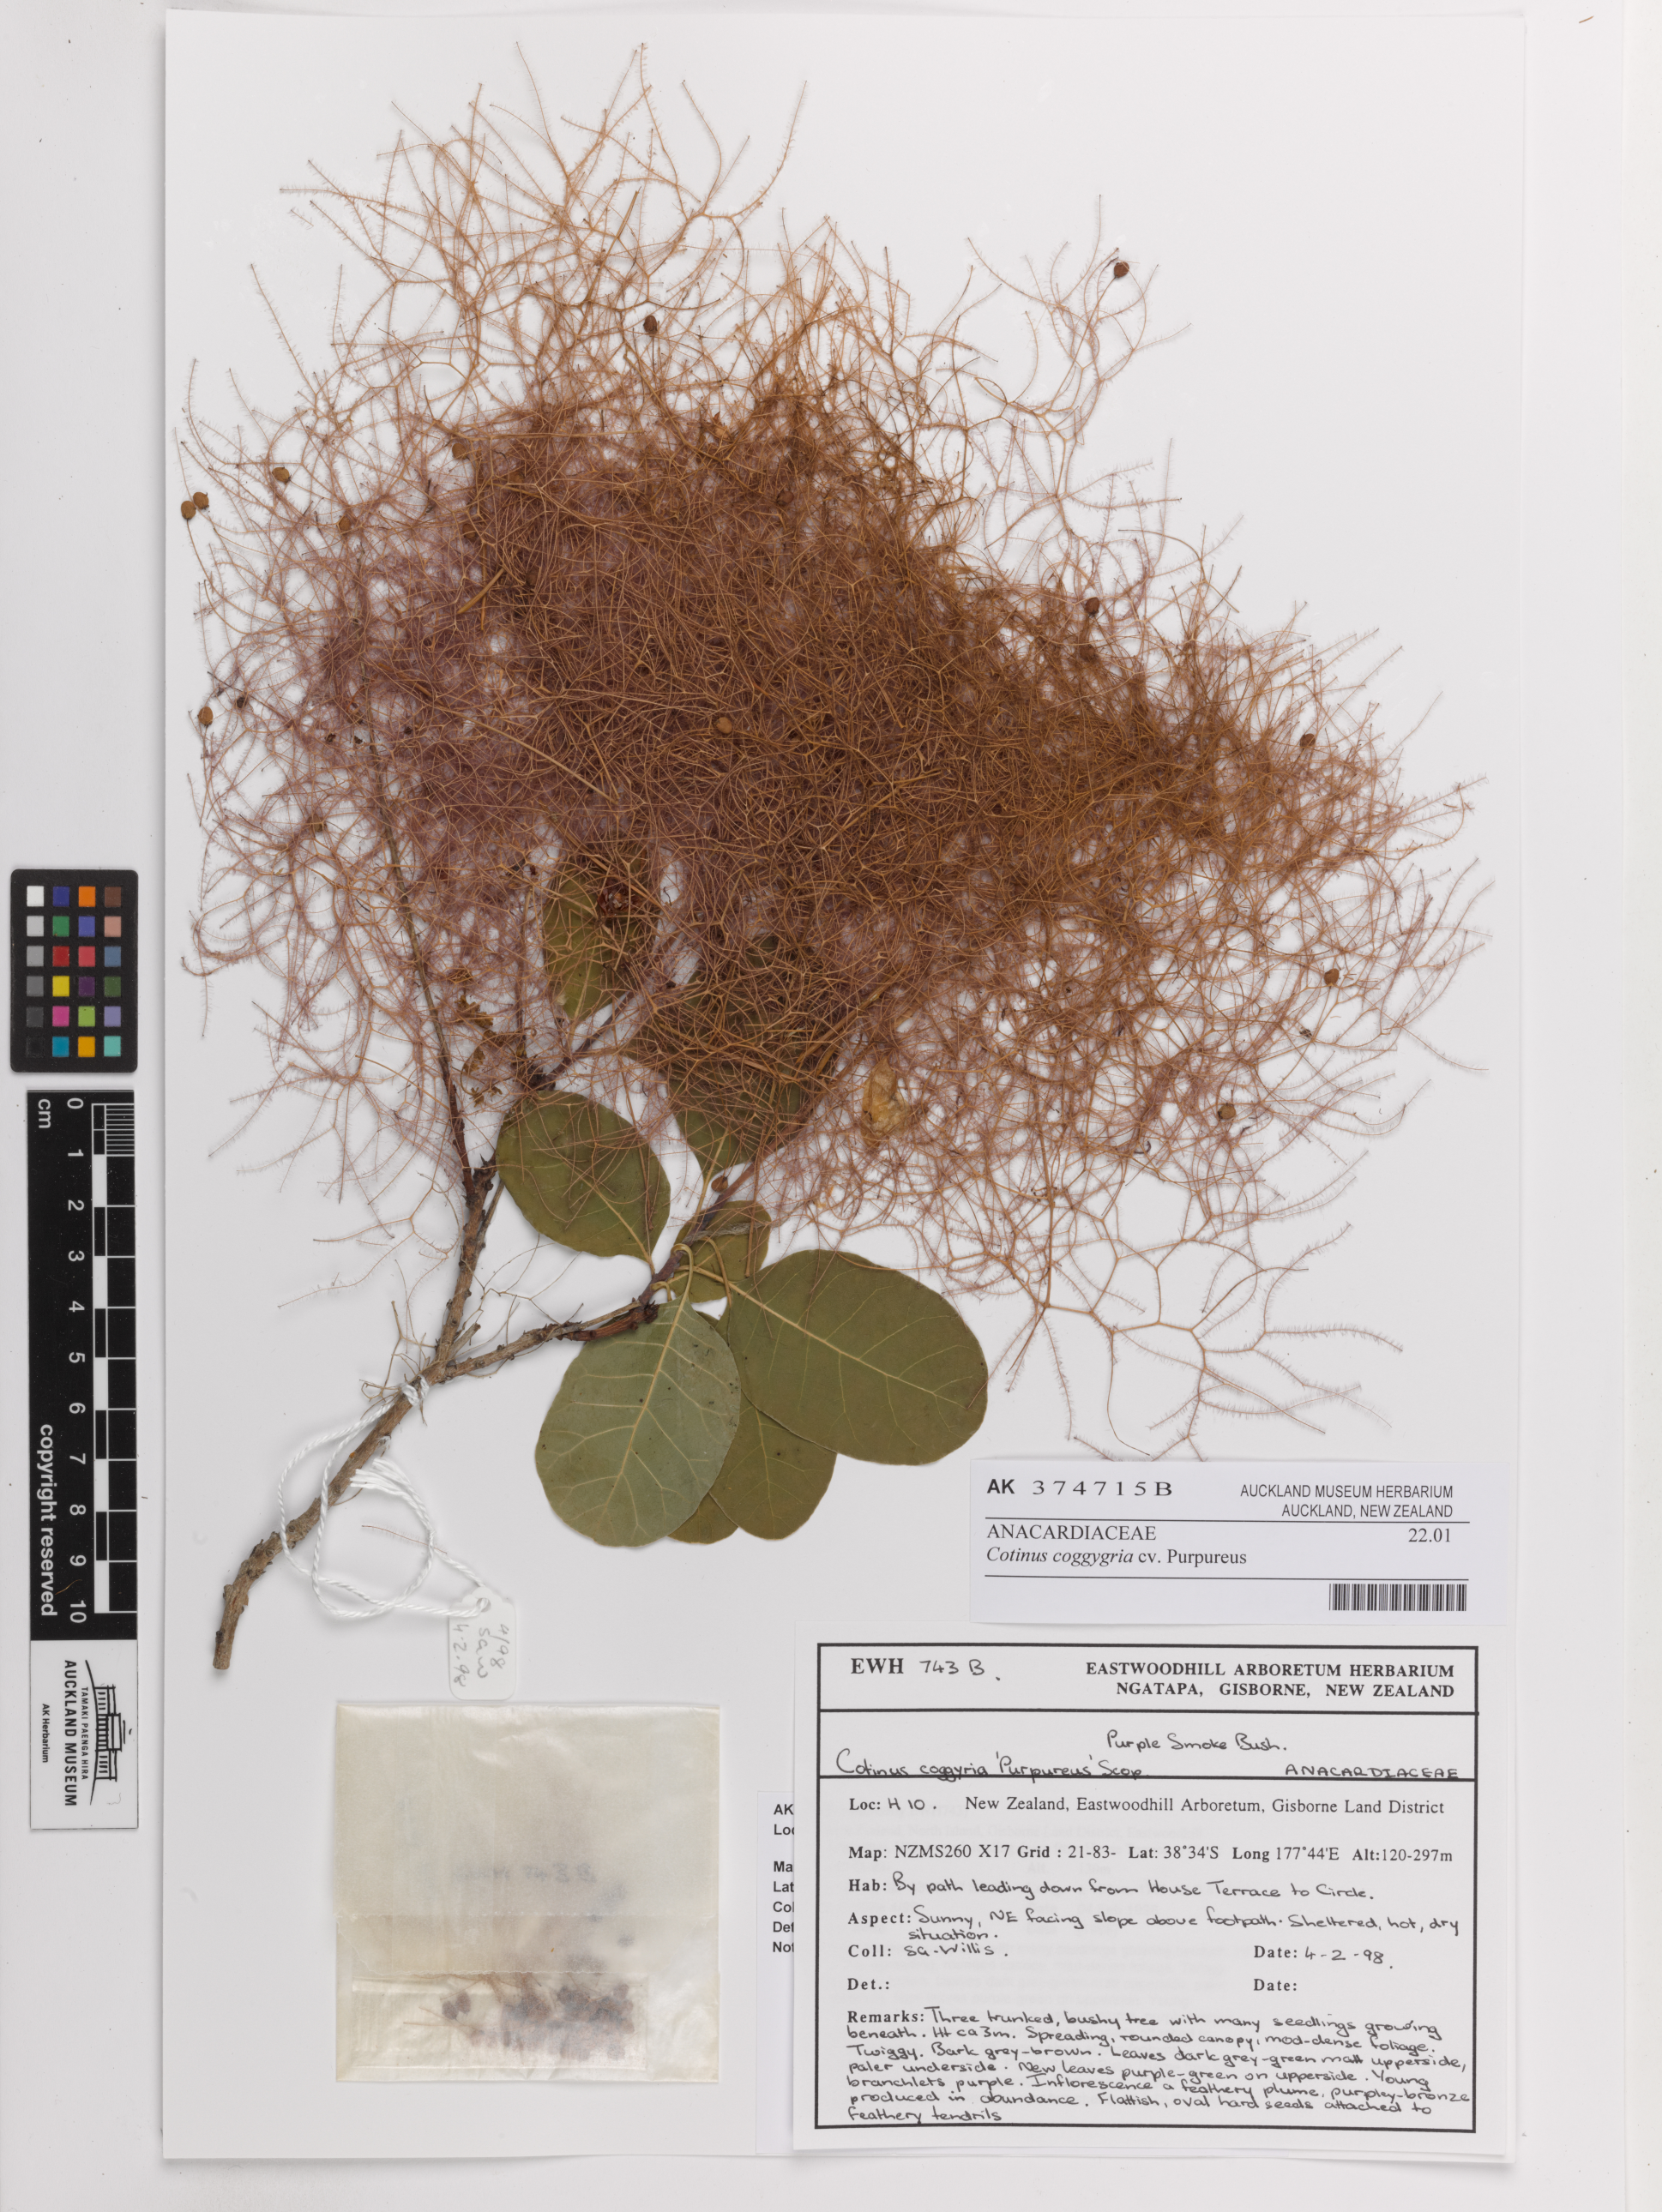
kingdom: Plantae
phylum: Tracheophyta
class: Magnoliopsida
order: Sapindales
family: Anacardiaceae
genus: Cotinus
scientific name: Cotinus coggygria
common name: Smoke-tree
